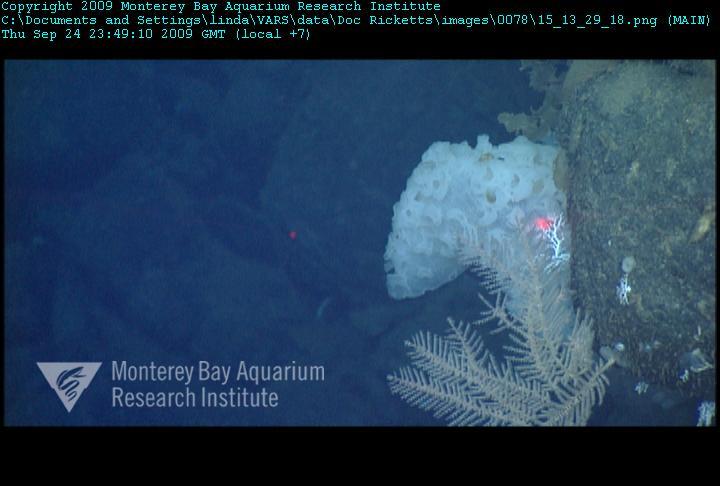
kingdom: Animalia
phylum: Porifera
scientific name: Porifera
